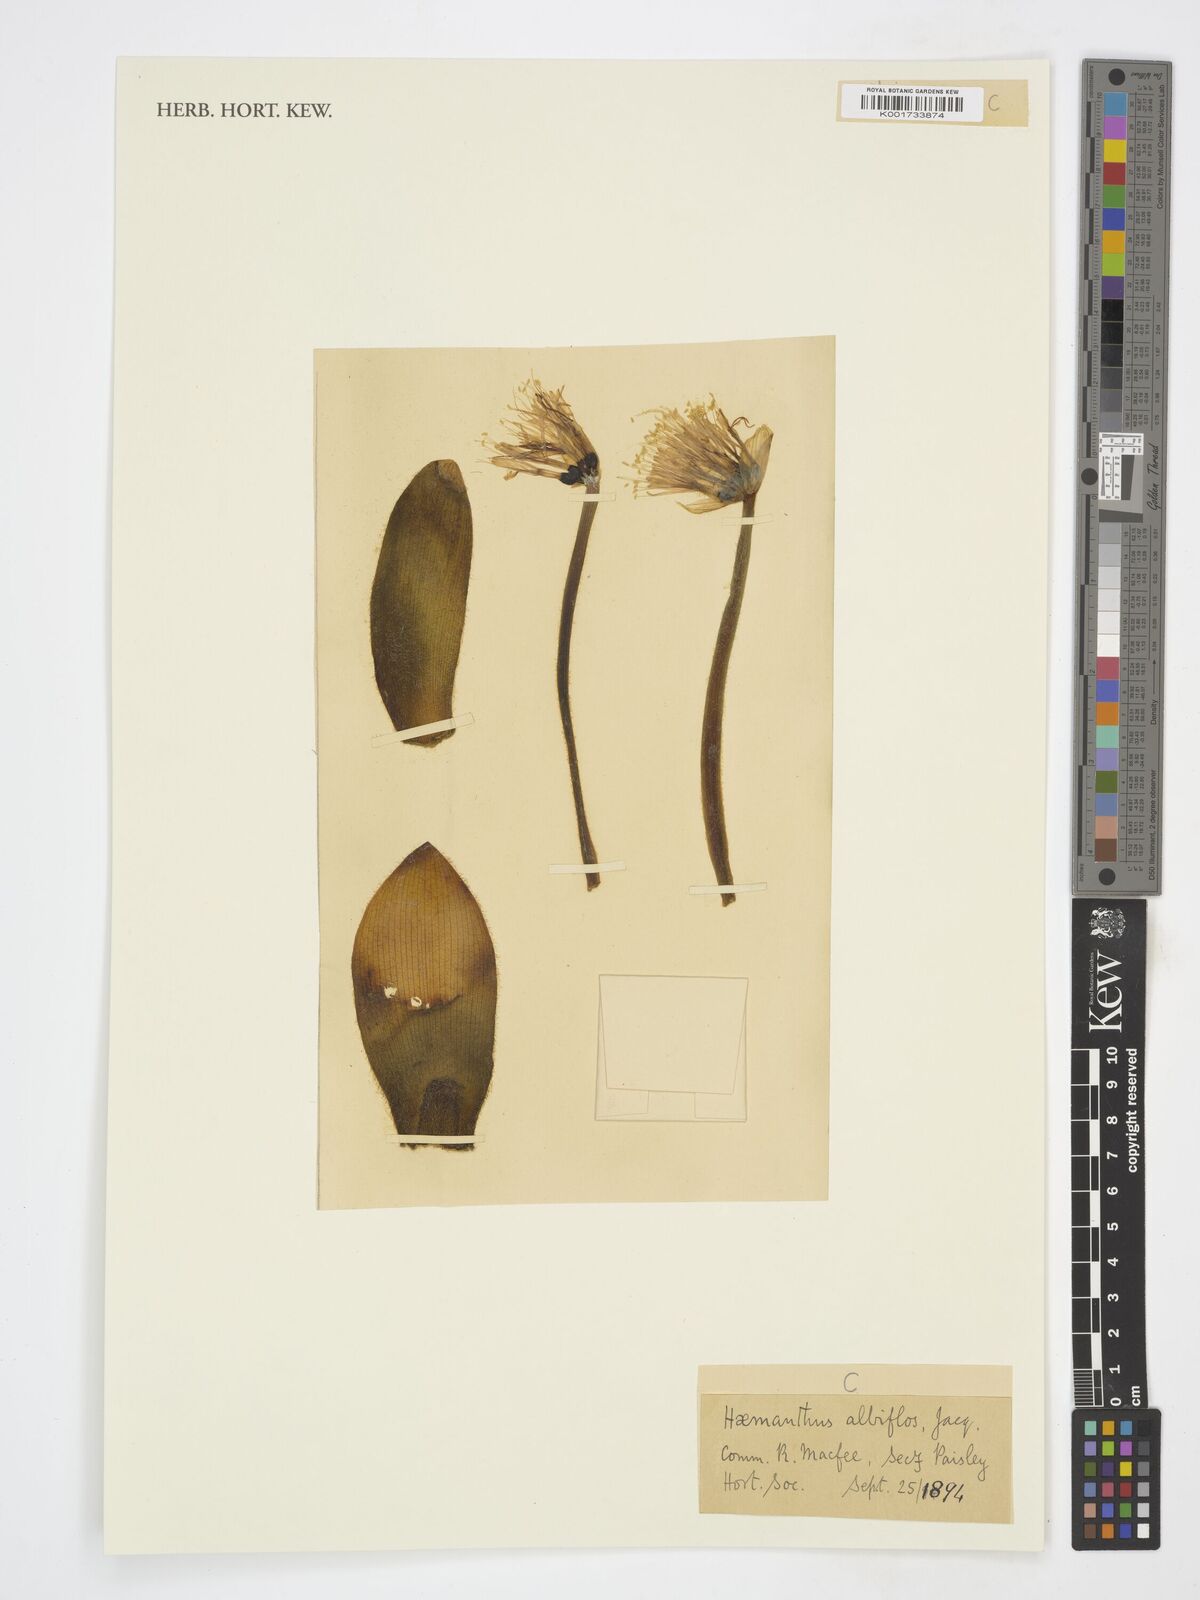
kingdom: Plantae
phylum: Tracheophyta
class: Liliopsida
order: Asparagales
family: Amaryllidaceae
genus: Haemanthus
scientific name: Haemanthus albiflos
